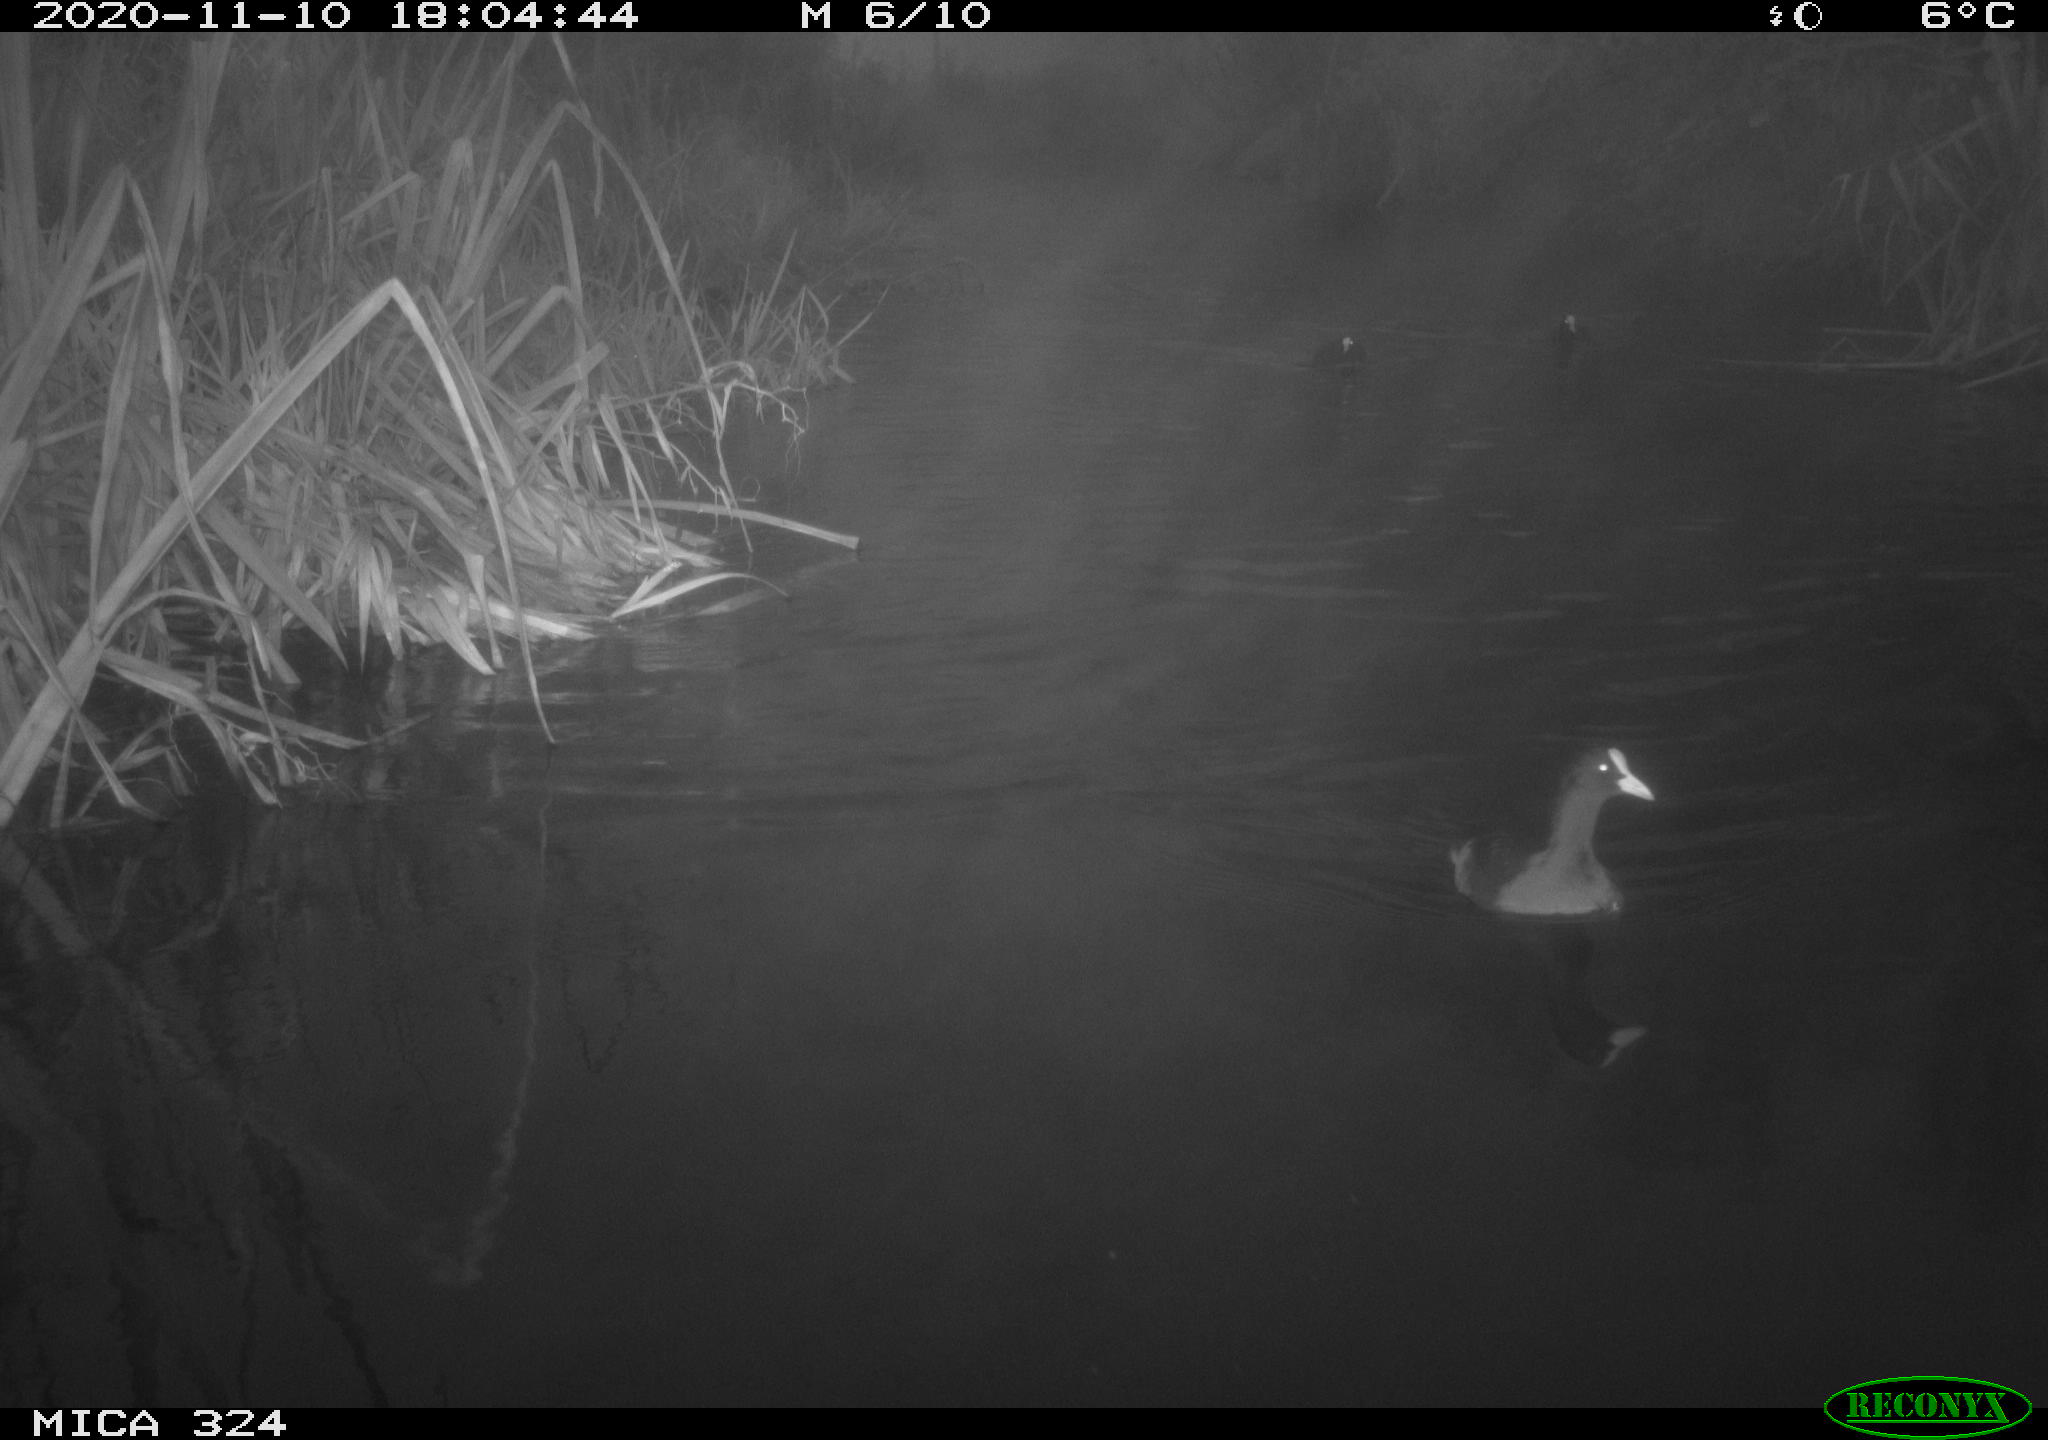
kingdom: Animalia
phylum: Chordata
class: Aves
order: Gruiformes
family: Rallidae
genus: Fulica
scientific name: Fulica atra
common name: Eurasian coot
